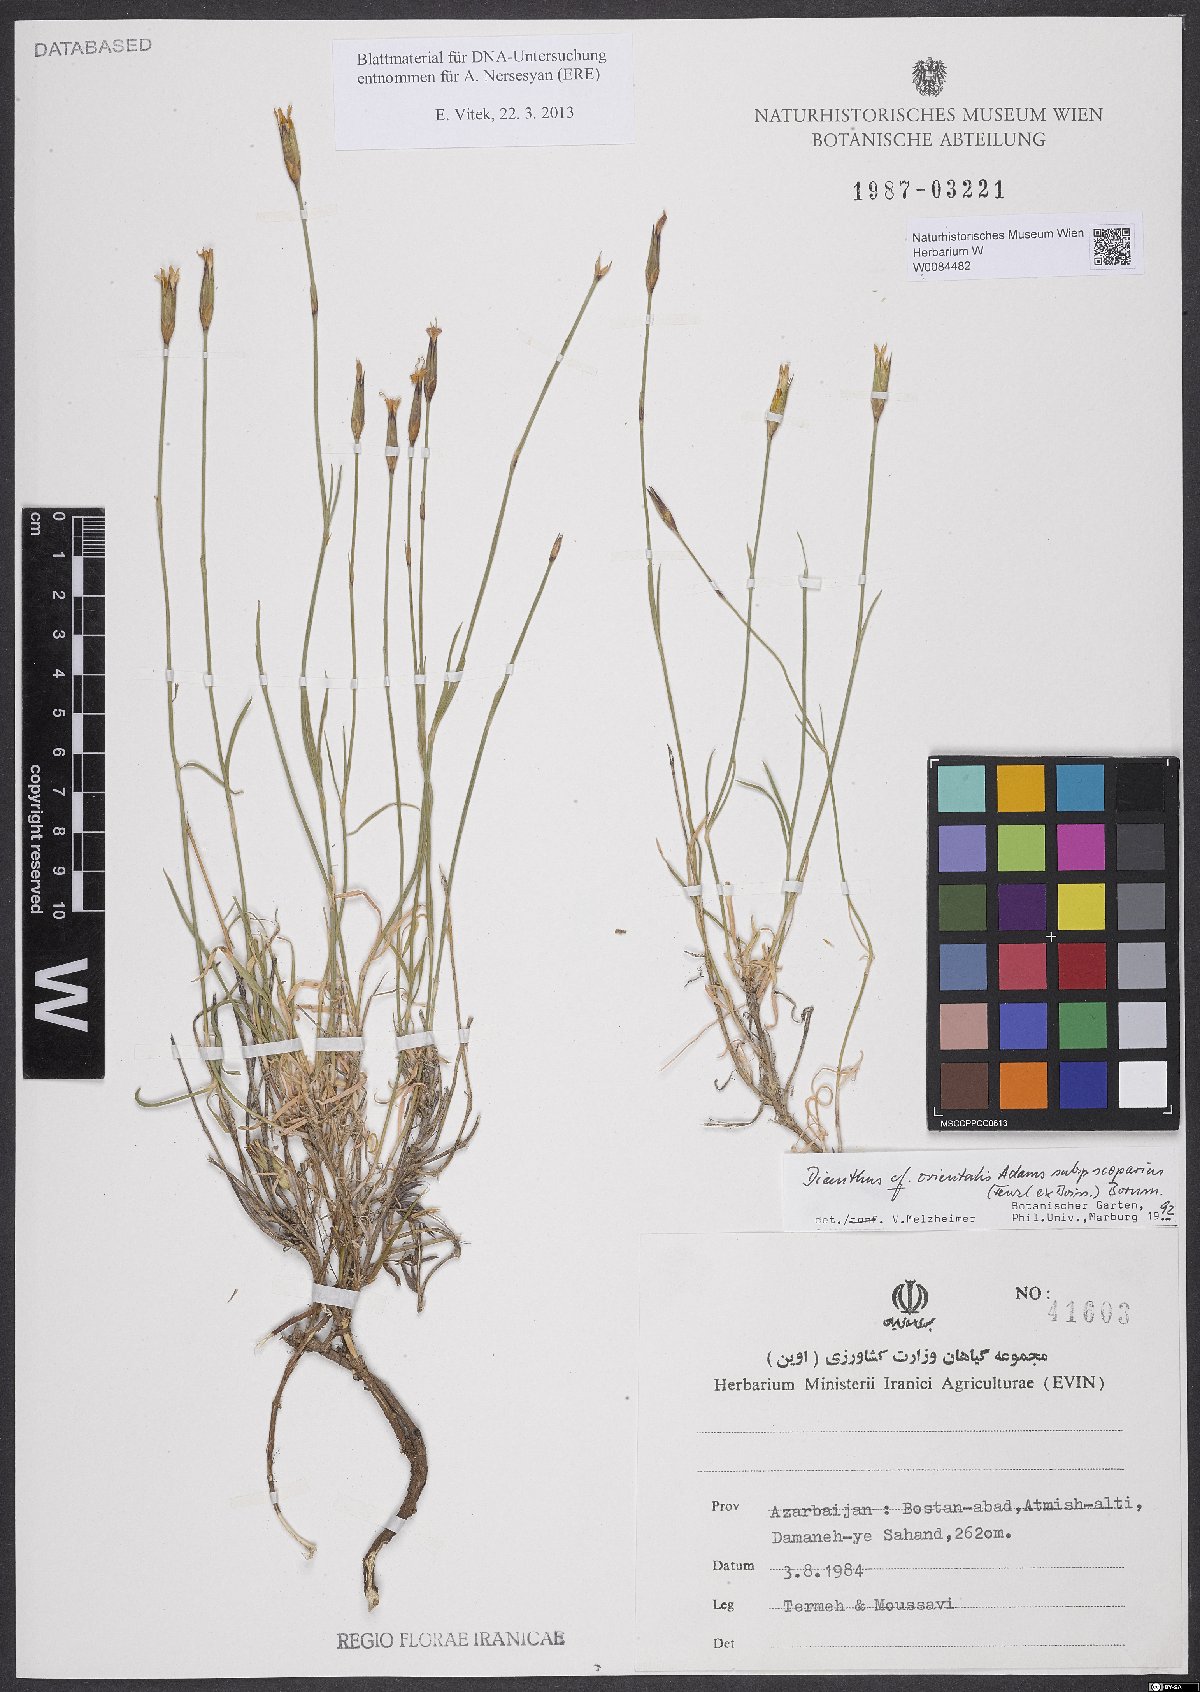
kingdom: Plantae
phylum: Tracheophyta
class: Magnoliopsida
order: Caryophyllales
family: Caryophyllaceae
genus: Dianthus
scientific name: Dianthus orientalis
